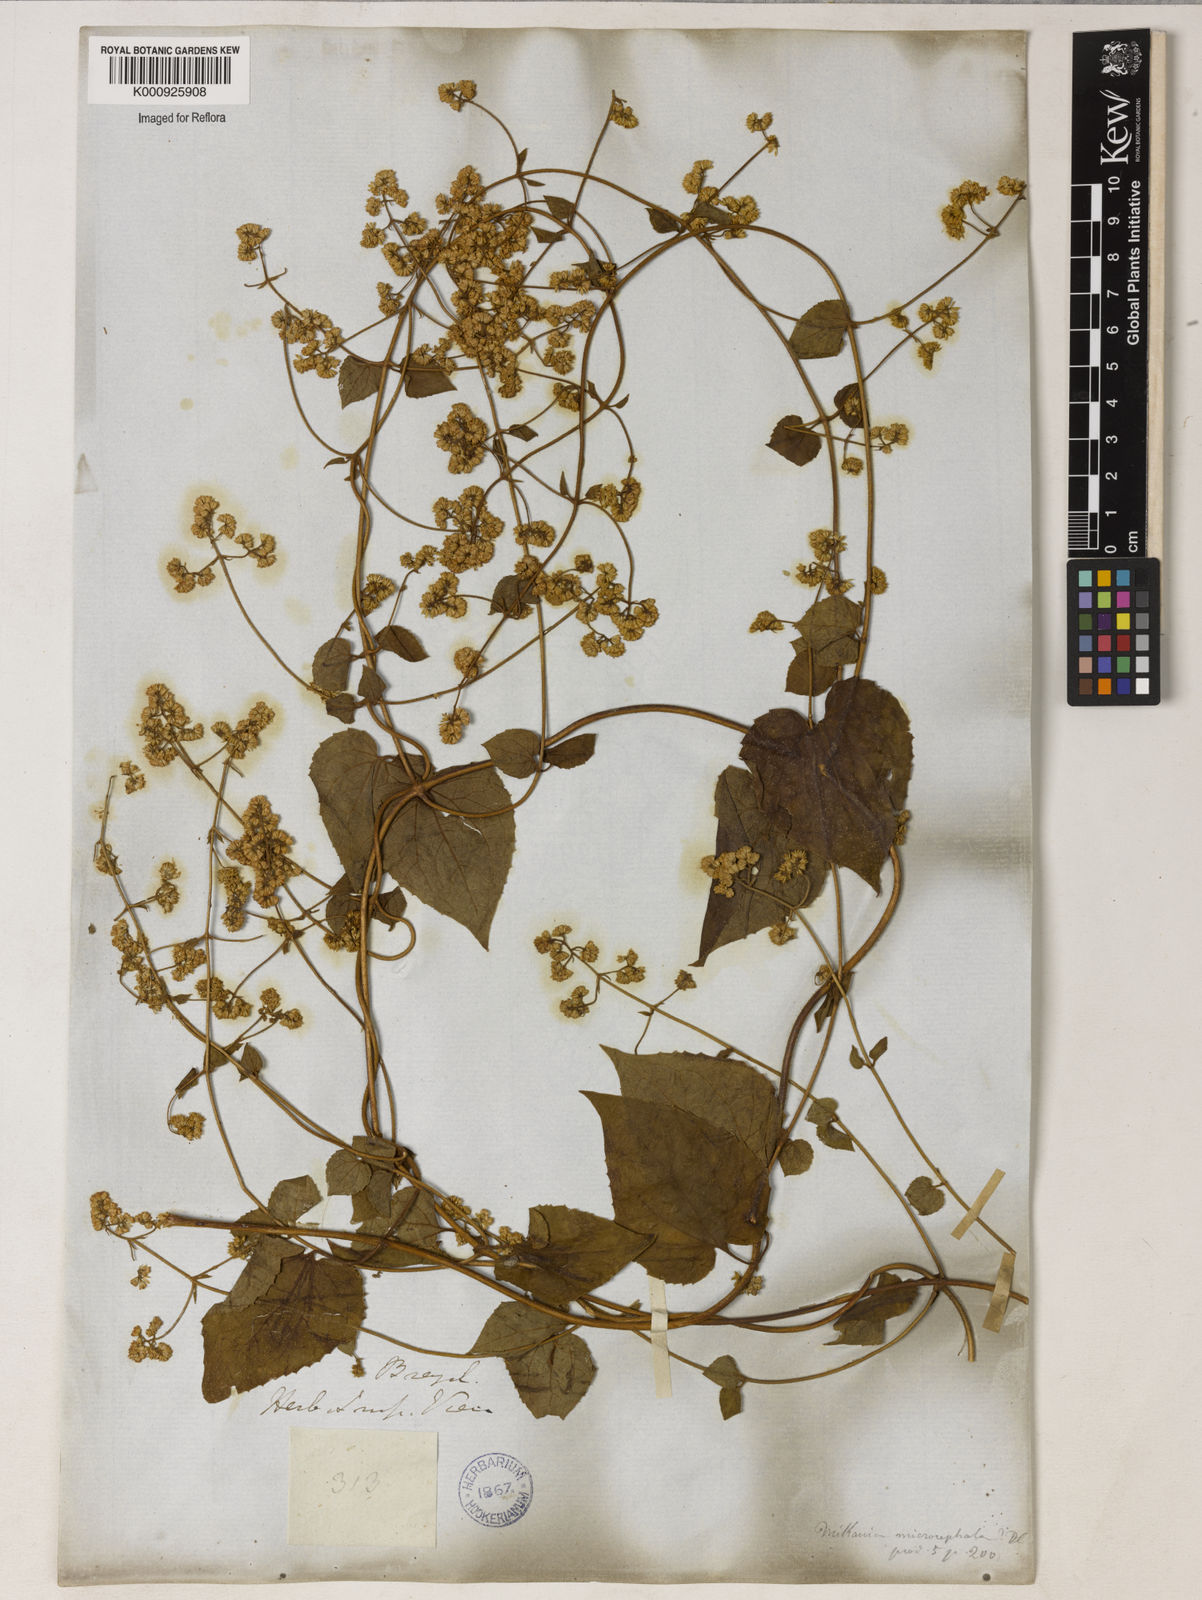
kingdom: Plantae
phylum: Tracheophyta
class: Magnoliopsida
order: Asterales
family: Asteraceae
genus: Mikania
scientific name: Mikania microcephala
